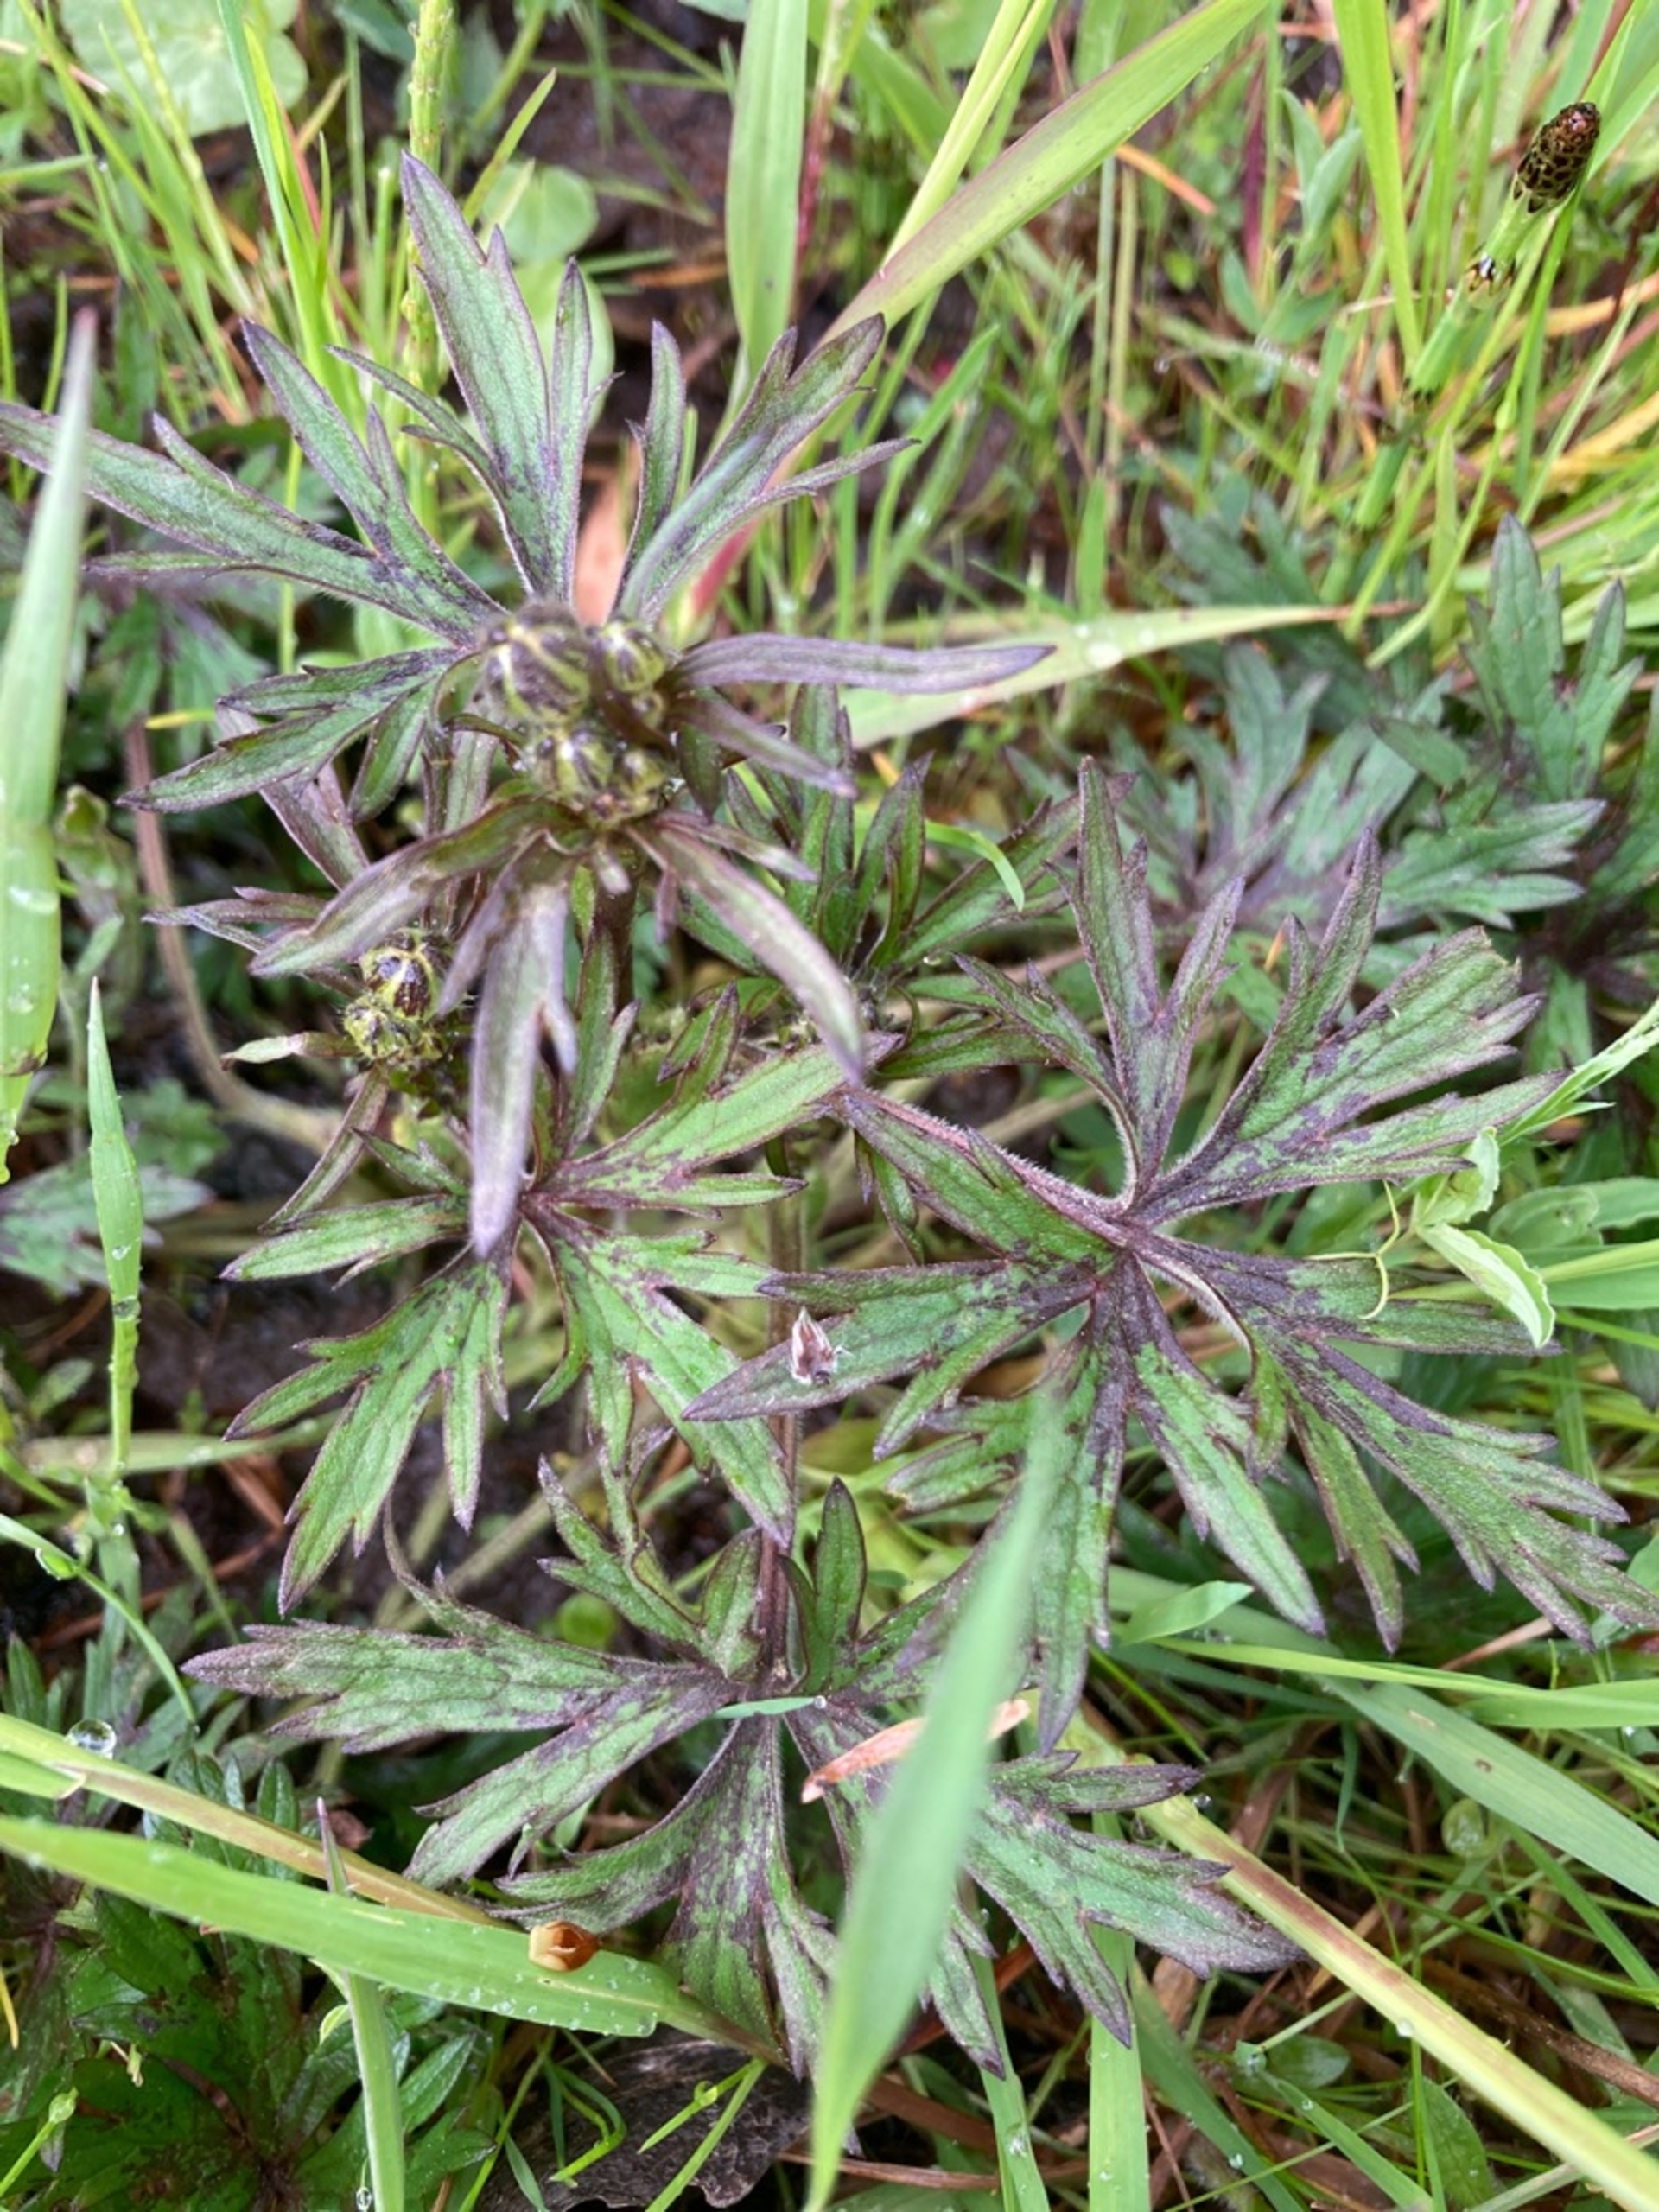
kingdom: Plantae
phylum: Tracheophyta
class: Magnoliopsida
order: Ranunculales
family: Ranunculaceae
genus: Ranunculus
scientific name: Ranunculus acris
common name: Bidende ranunkel
